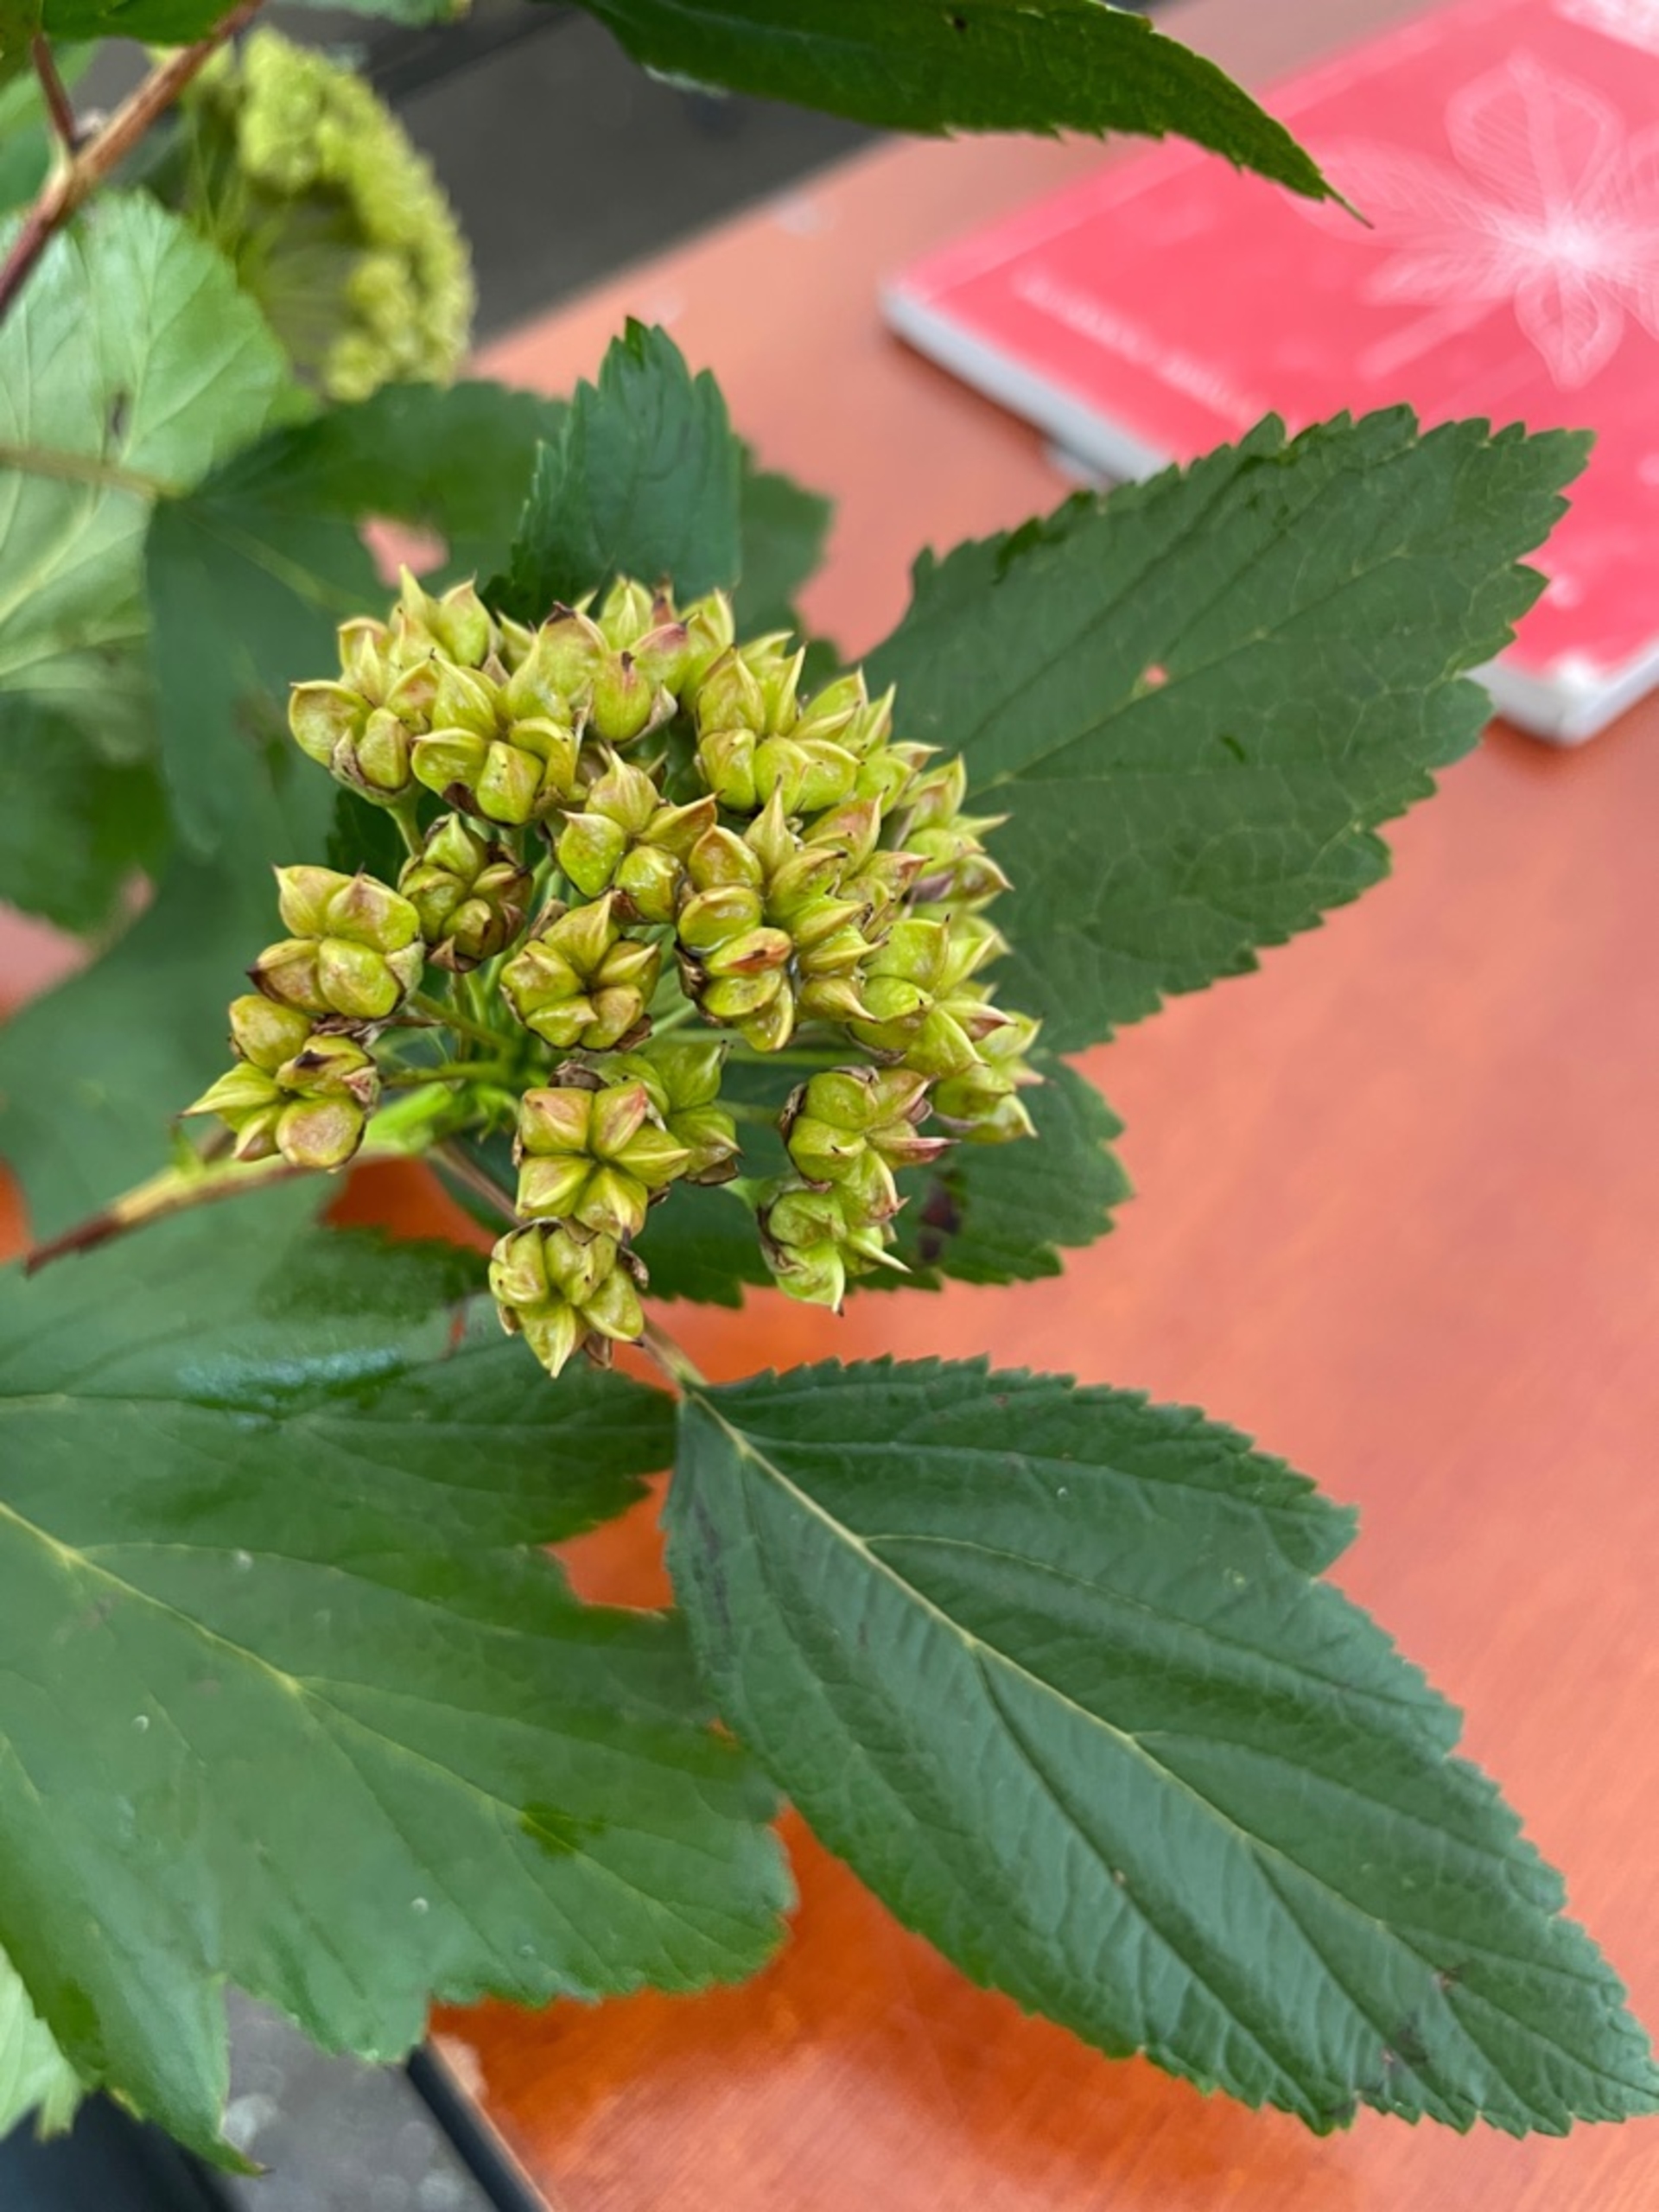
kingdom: Plantae
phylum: Tracheophyta
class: Magnoliopsida
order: Rosales
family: Rosaceae
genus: Physocarpus
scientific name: Physocarpus opulifolius
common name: Almindelig blærespiræa
